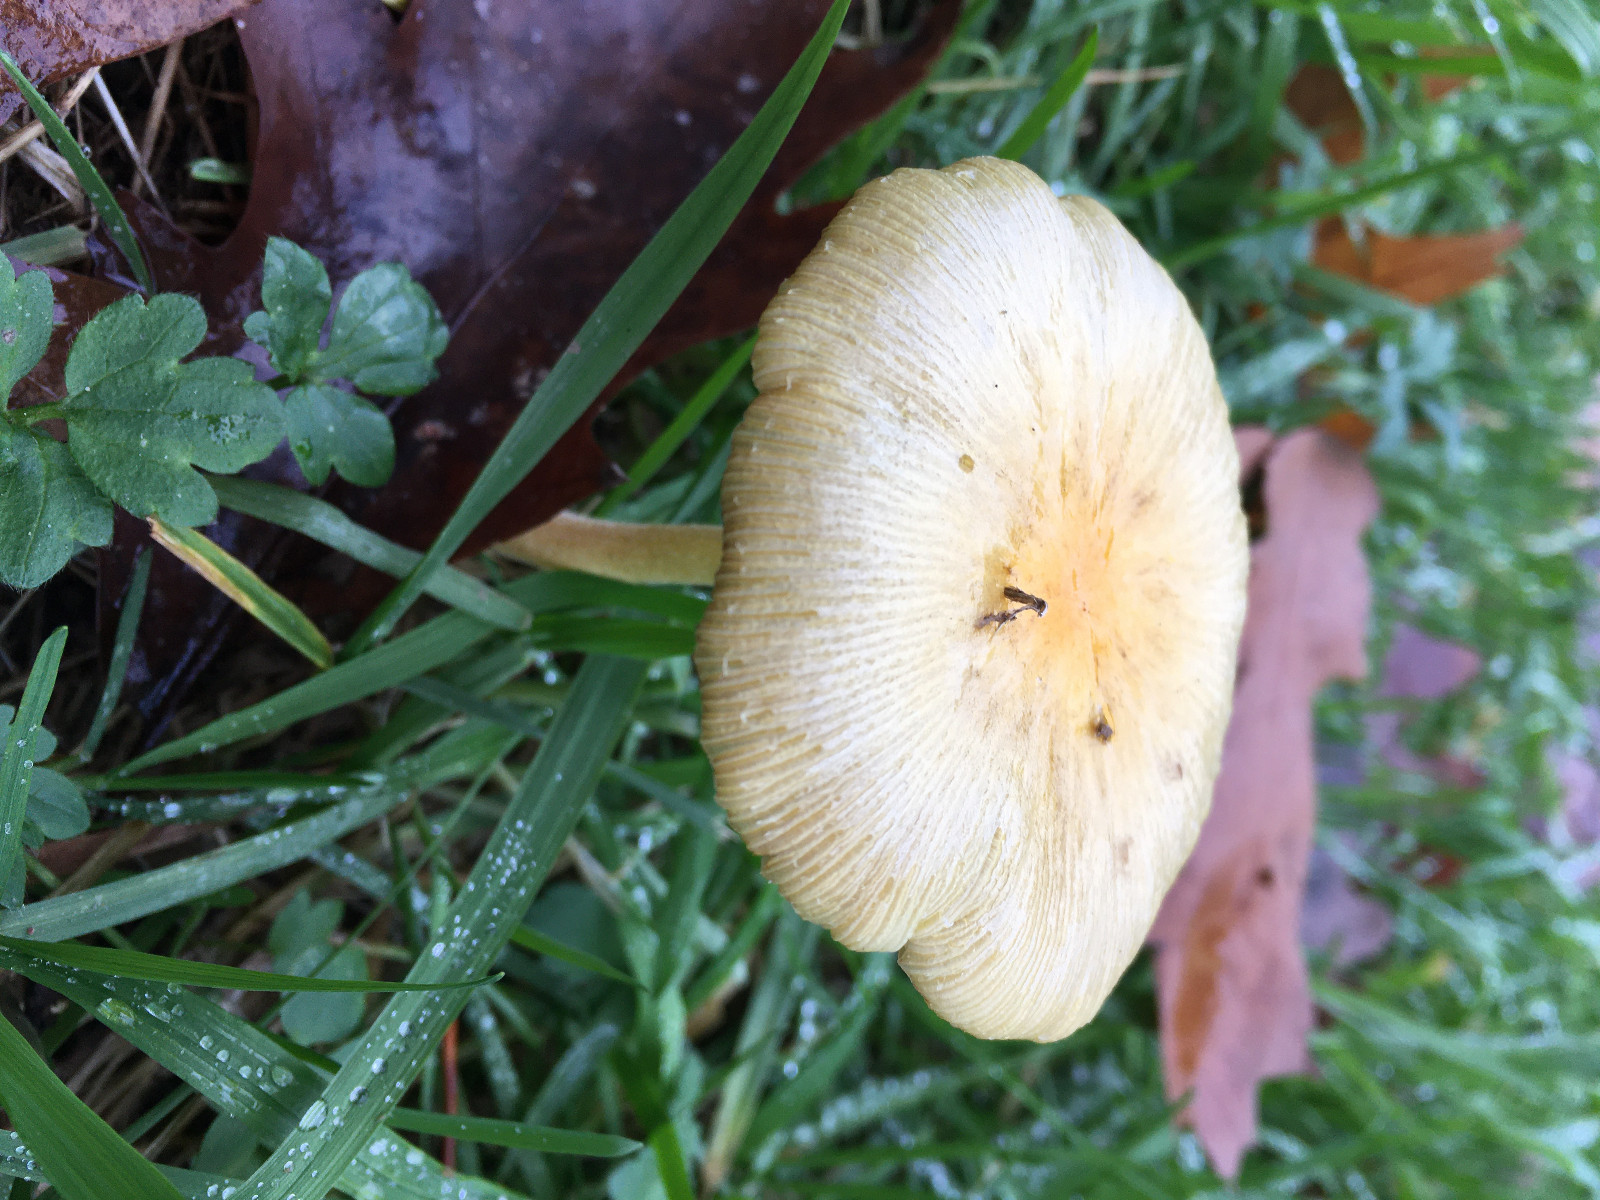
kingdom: Fungi
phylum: Basidiomycota
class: Agaricomycetes
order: Agaricales
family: Bolbitiaceae
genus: Bolbitius
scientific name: Bolbitius titubans
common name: almindelig gulhat
